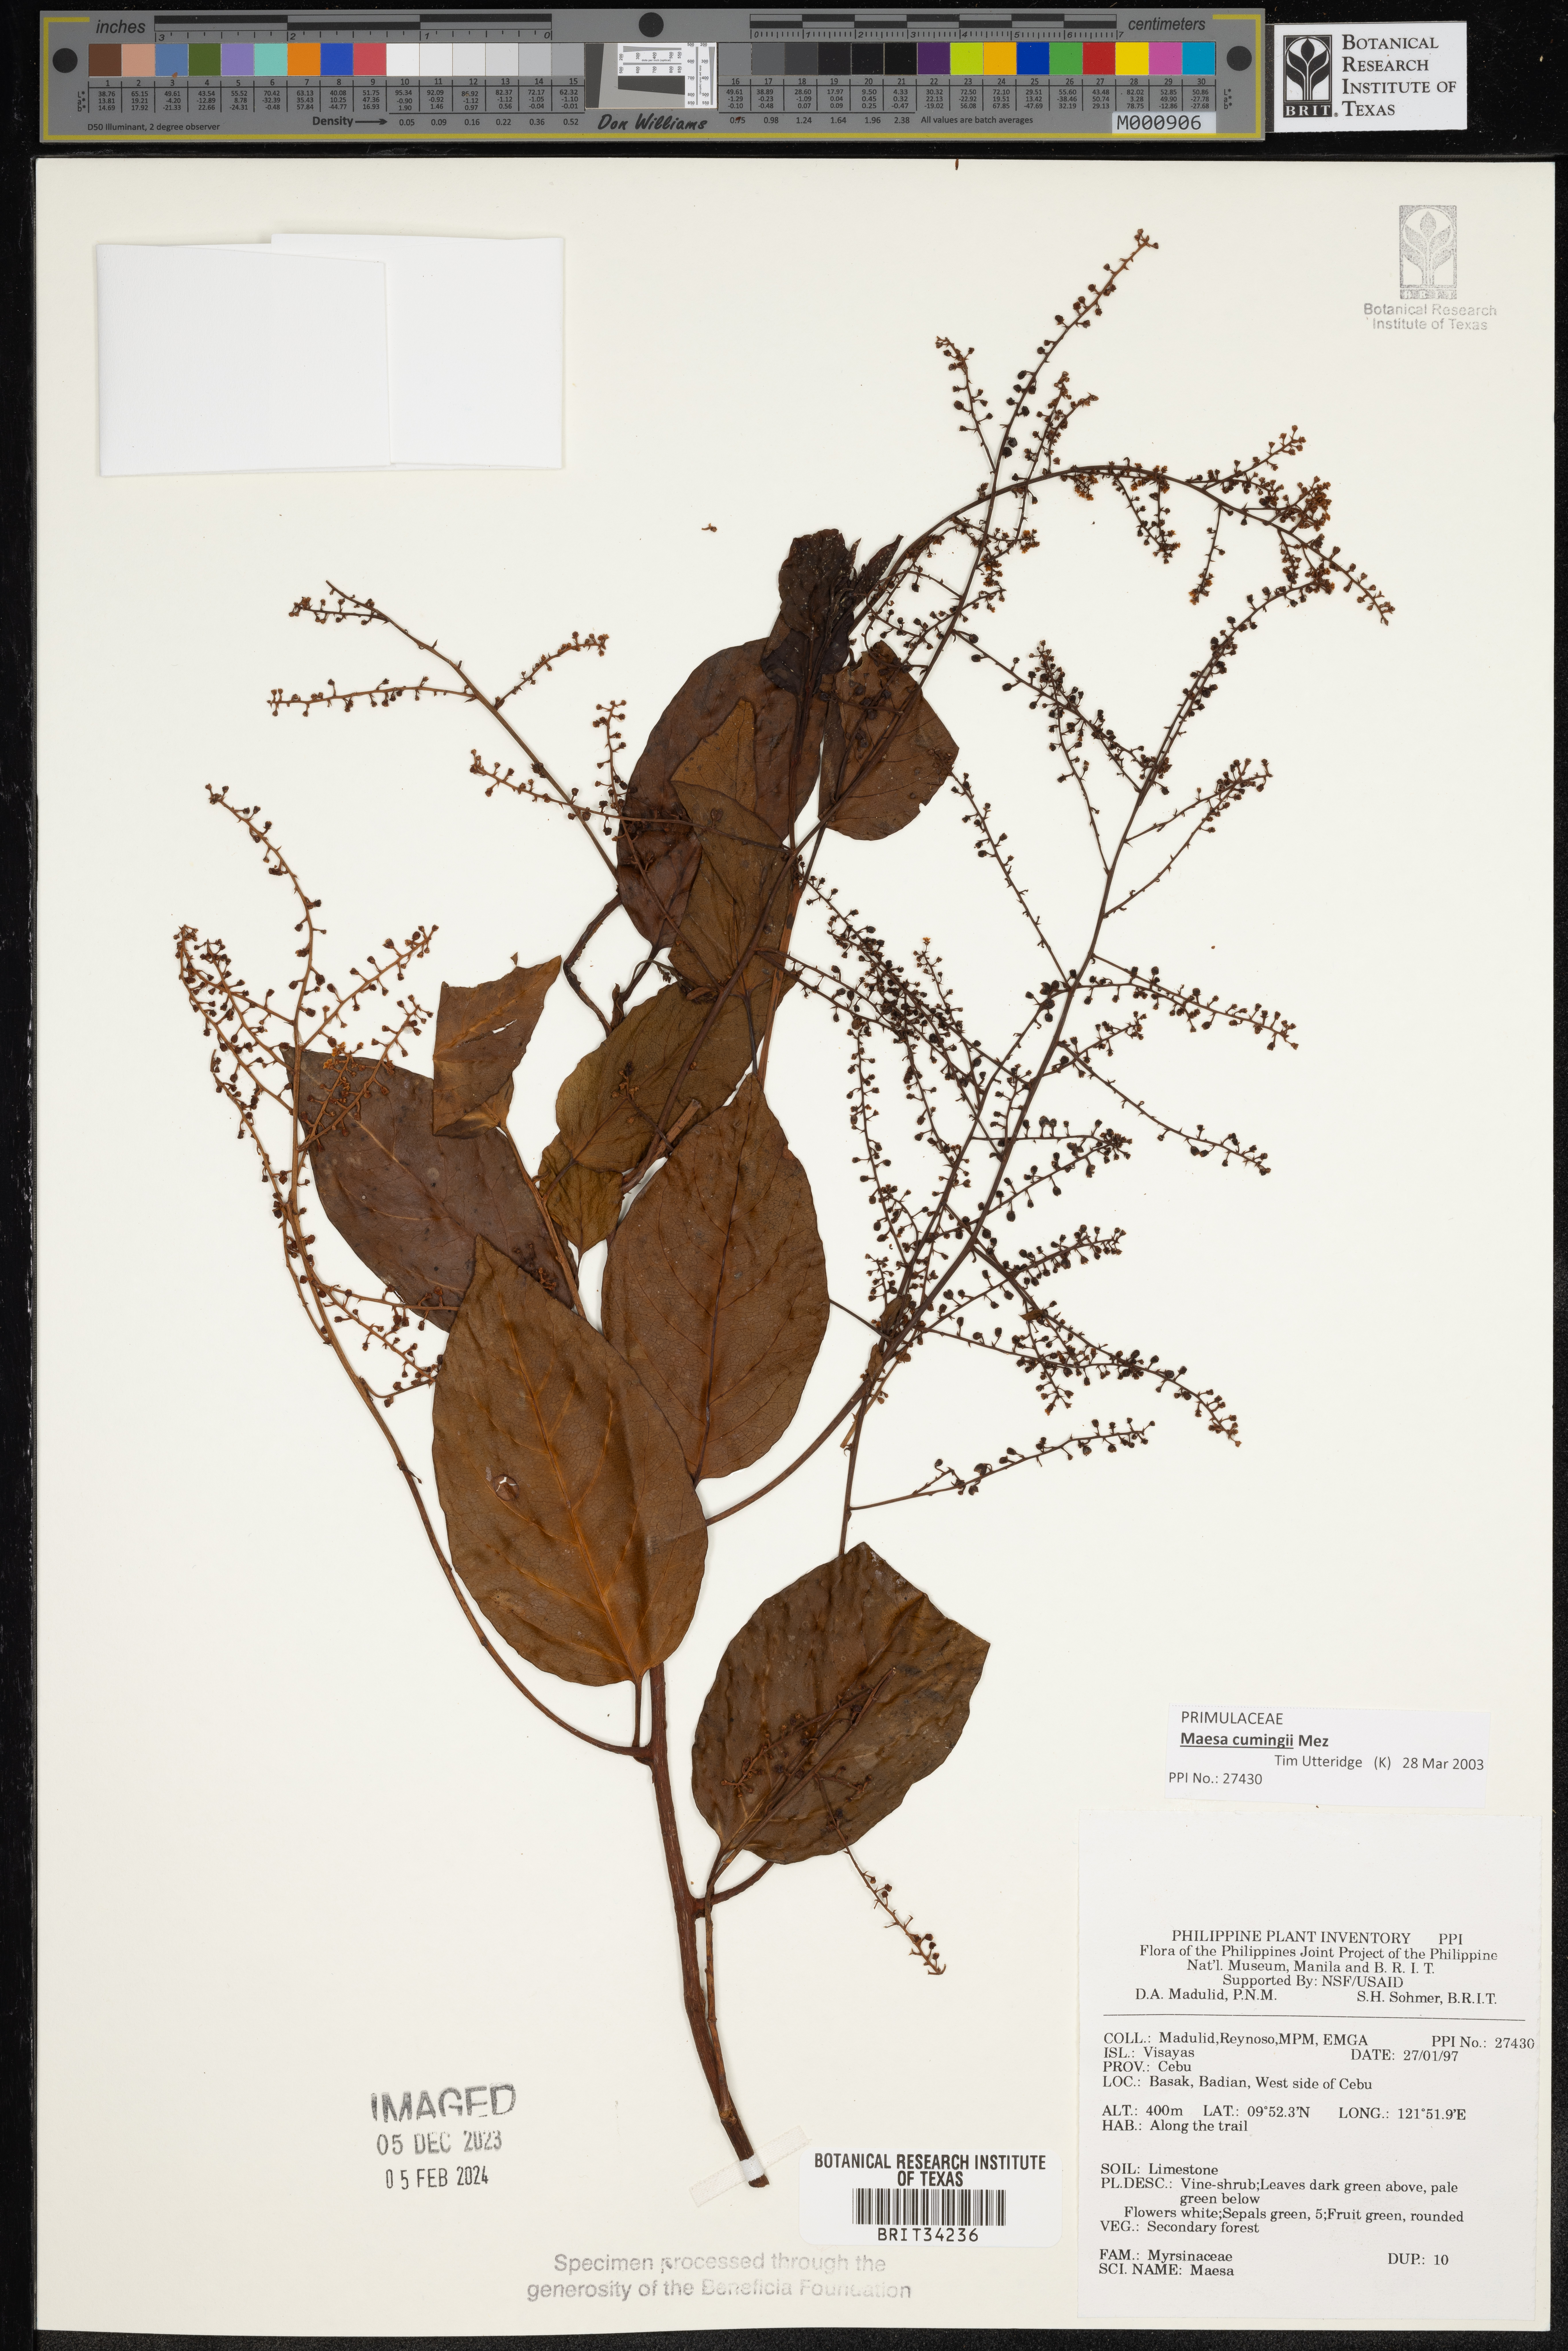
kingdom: Plantae
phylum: Tracheophyta
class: Magnoliopsida
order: Ericales
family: Primulaceae
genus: Maesa
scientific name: Maesa
